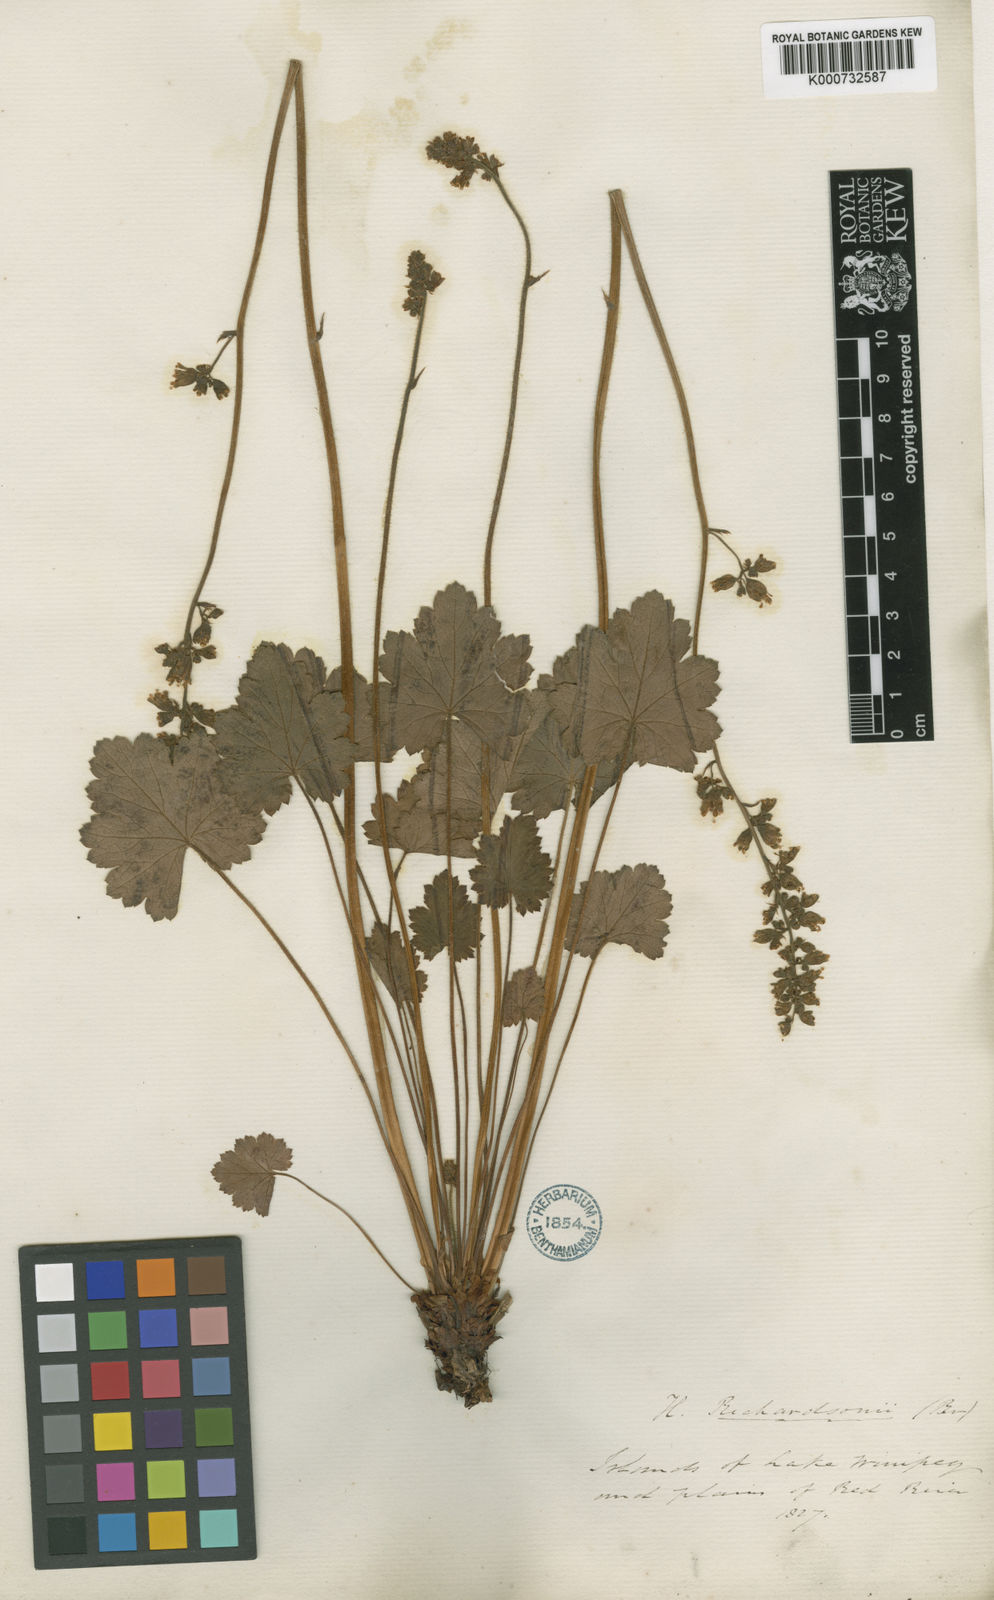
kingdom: Plantae
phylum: Tracheophyta
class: Magnoliopsida
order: Saxifragales
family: Saxifragaceae
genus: Heuchera
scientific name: Heuchera richardsonii
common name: Richardson's alumroot
